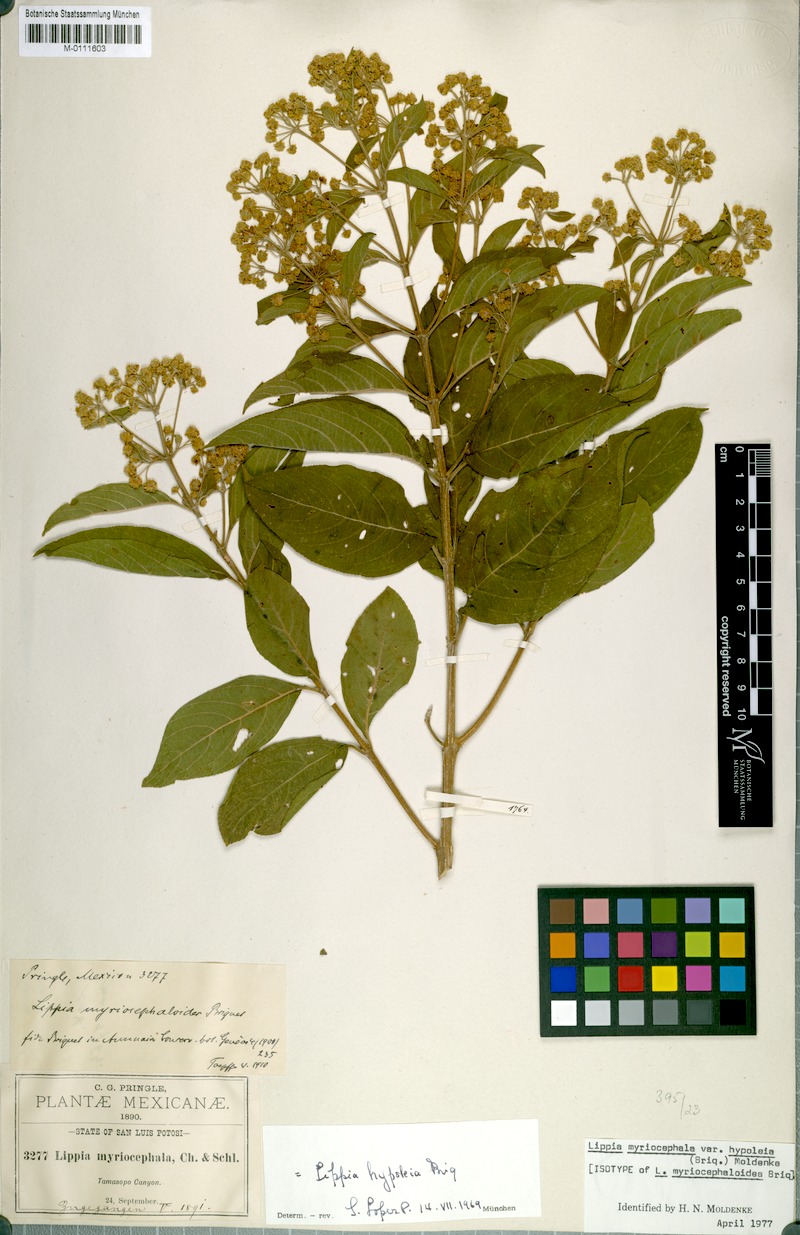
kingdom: Plantae
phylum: Tracheophyta
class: Magnoliopsida
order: Lamiales
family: Verbenaceae
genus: Lippia
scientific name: Lippia myriocephala
